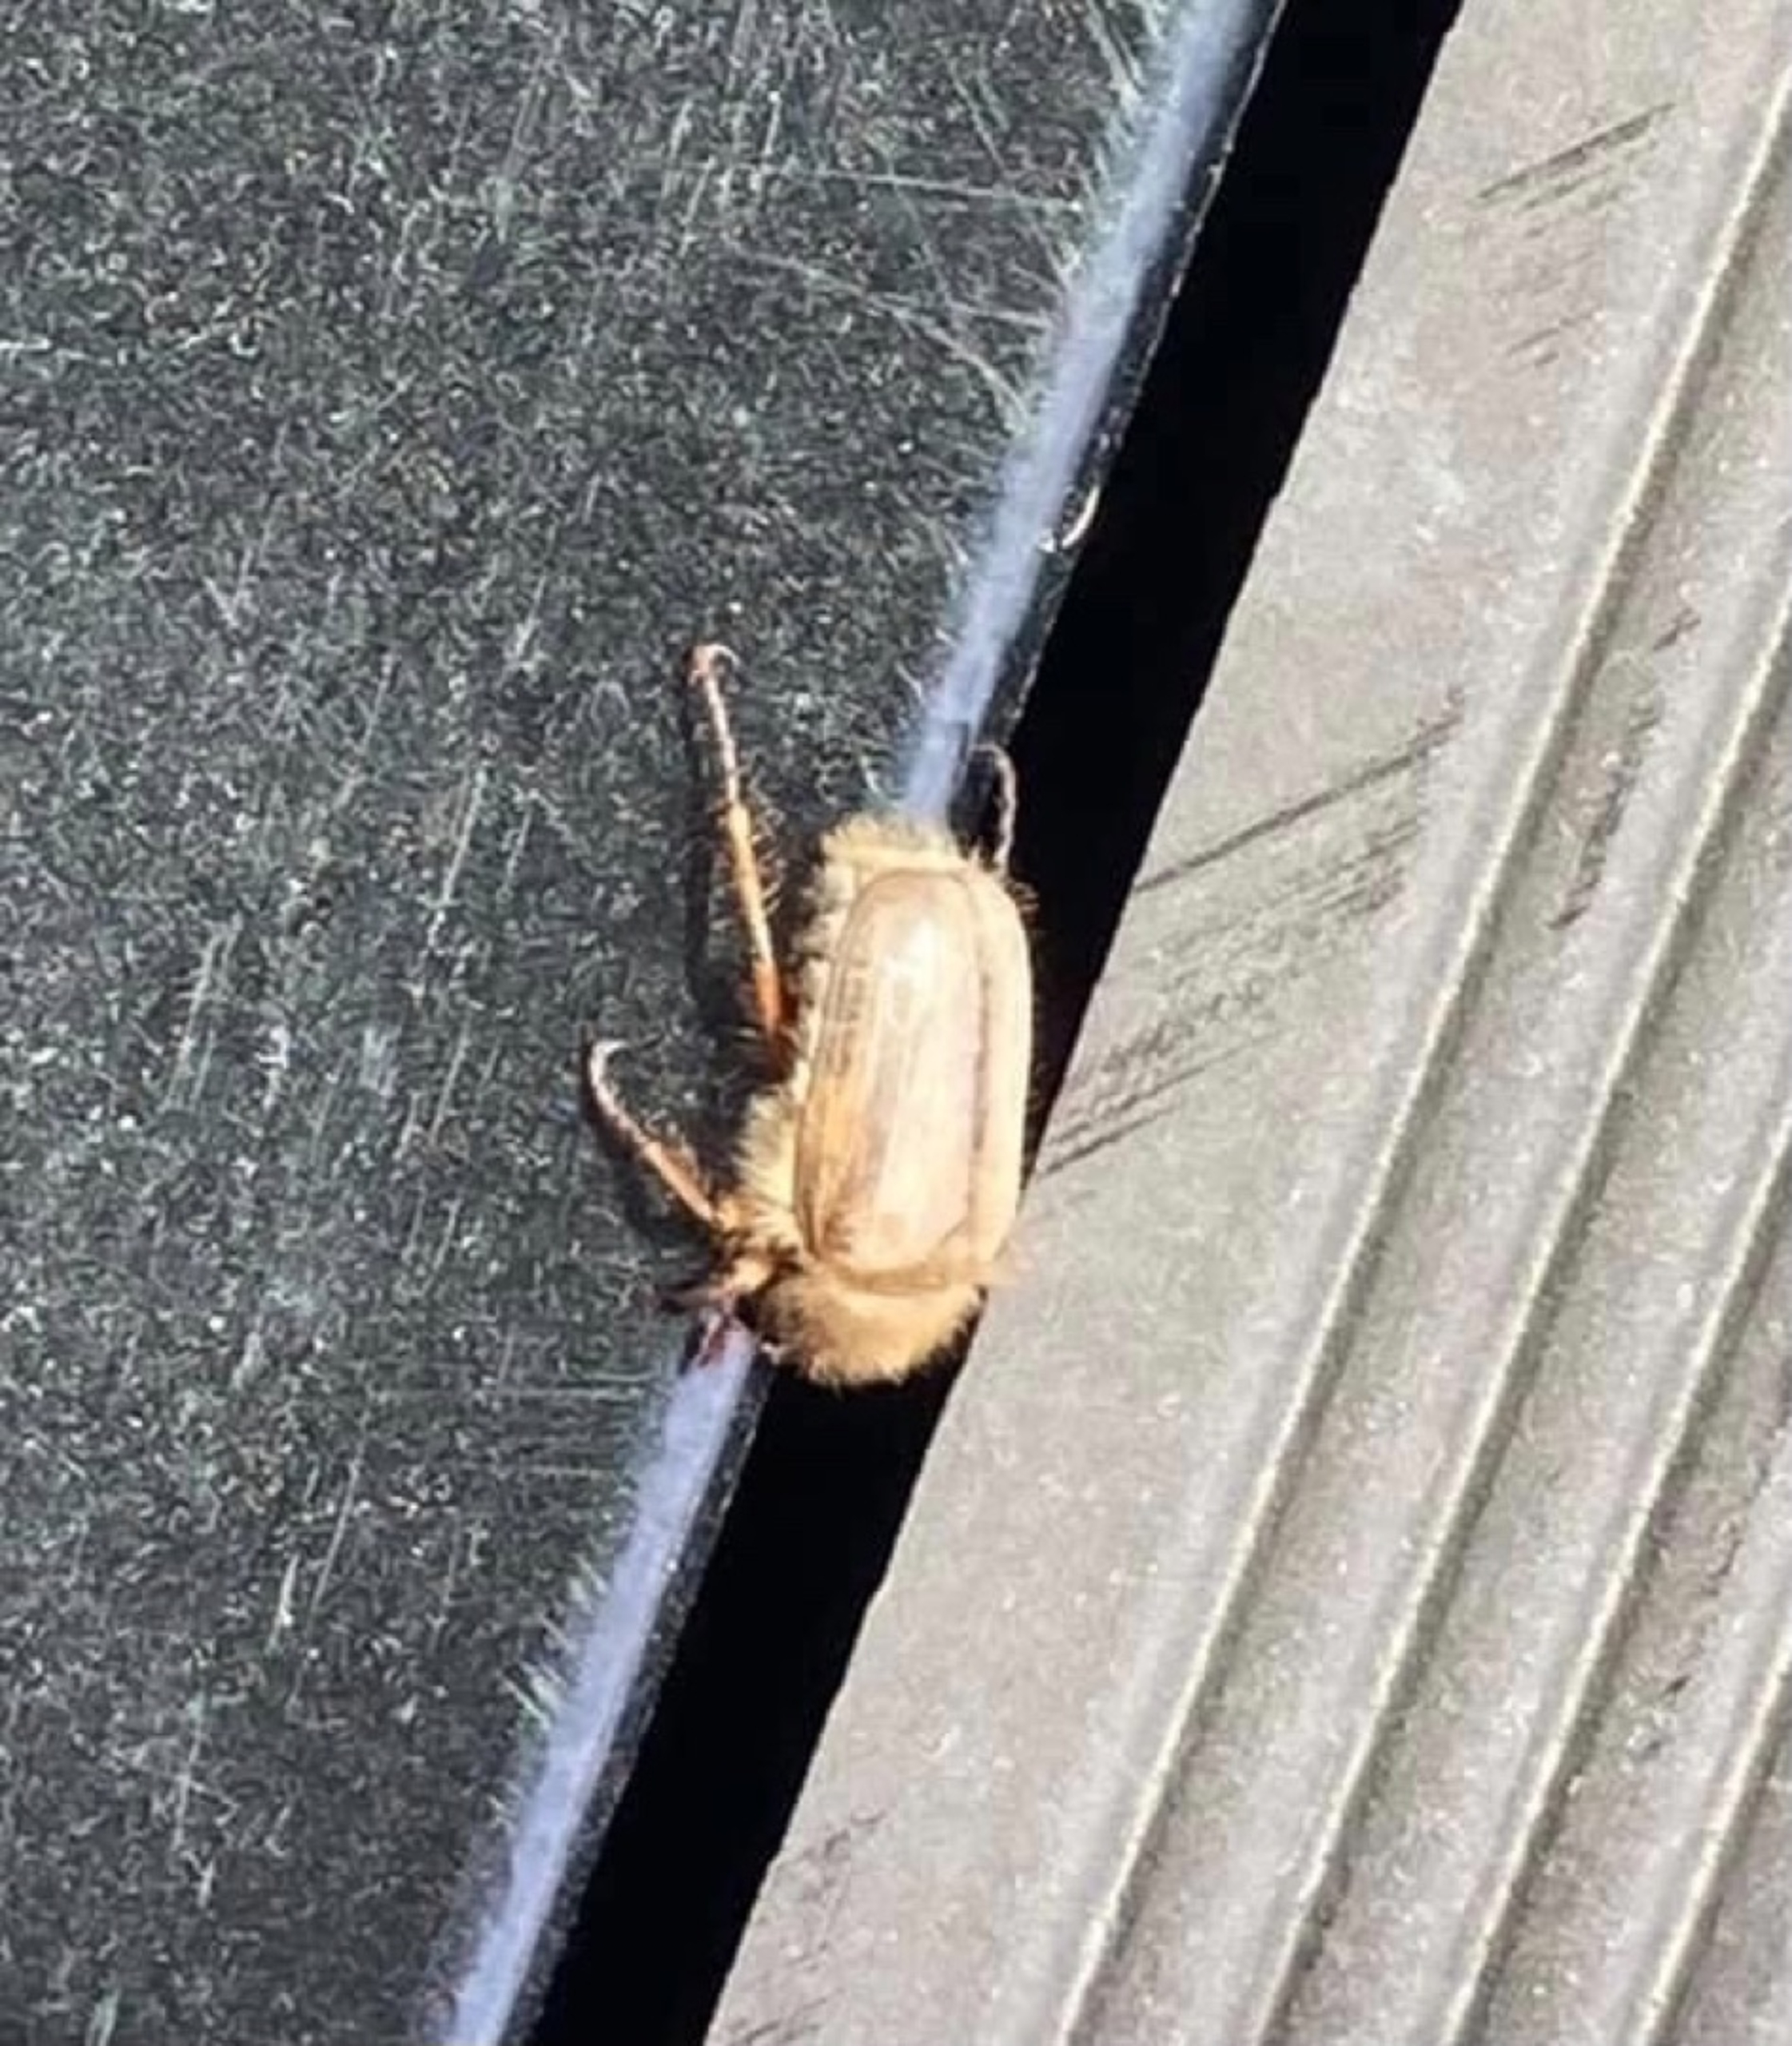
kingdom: Animalia
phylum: Arthropoda
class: Insecta
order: Coleoptera
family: Scarabaeidae
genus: Amphimallon
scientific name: Amphimallon solstitiale
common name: Sankthansoldenborre
